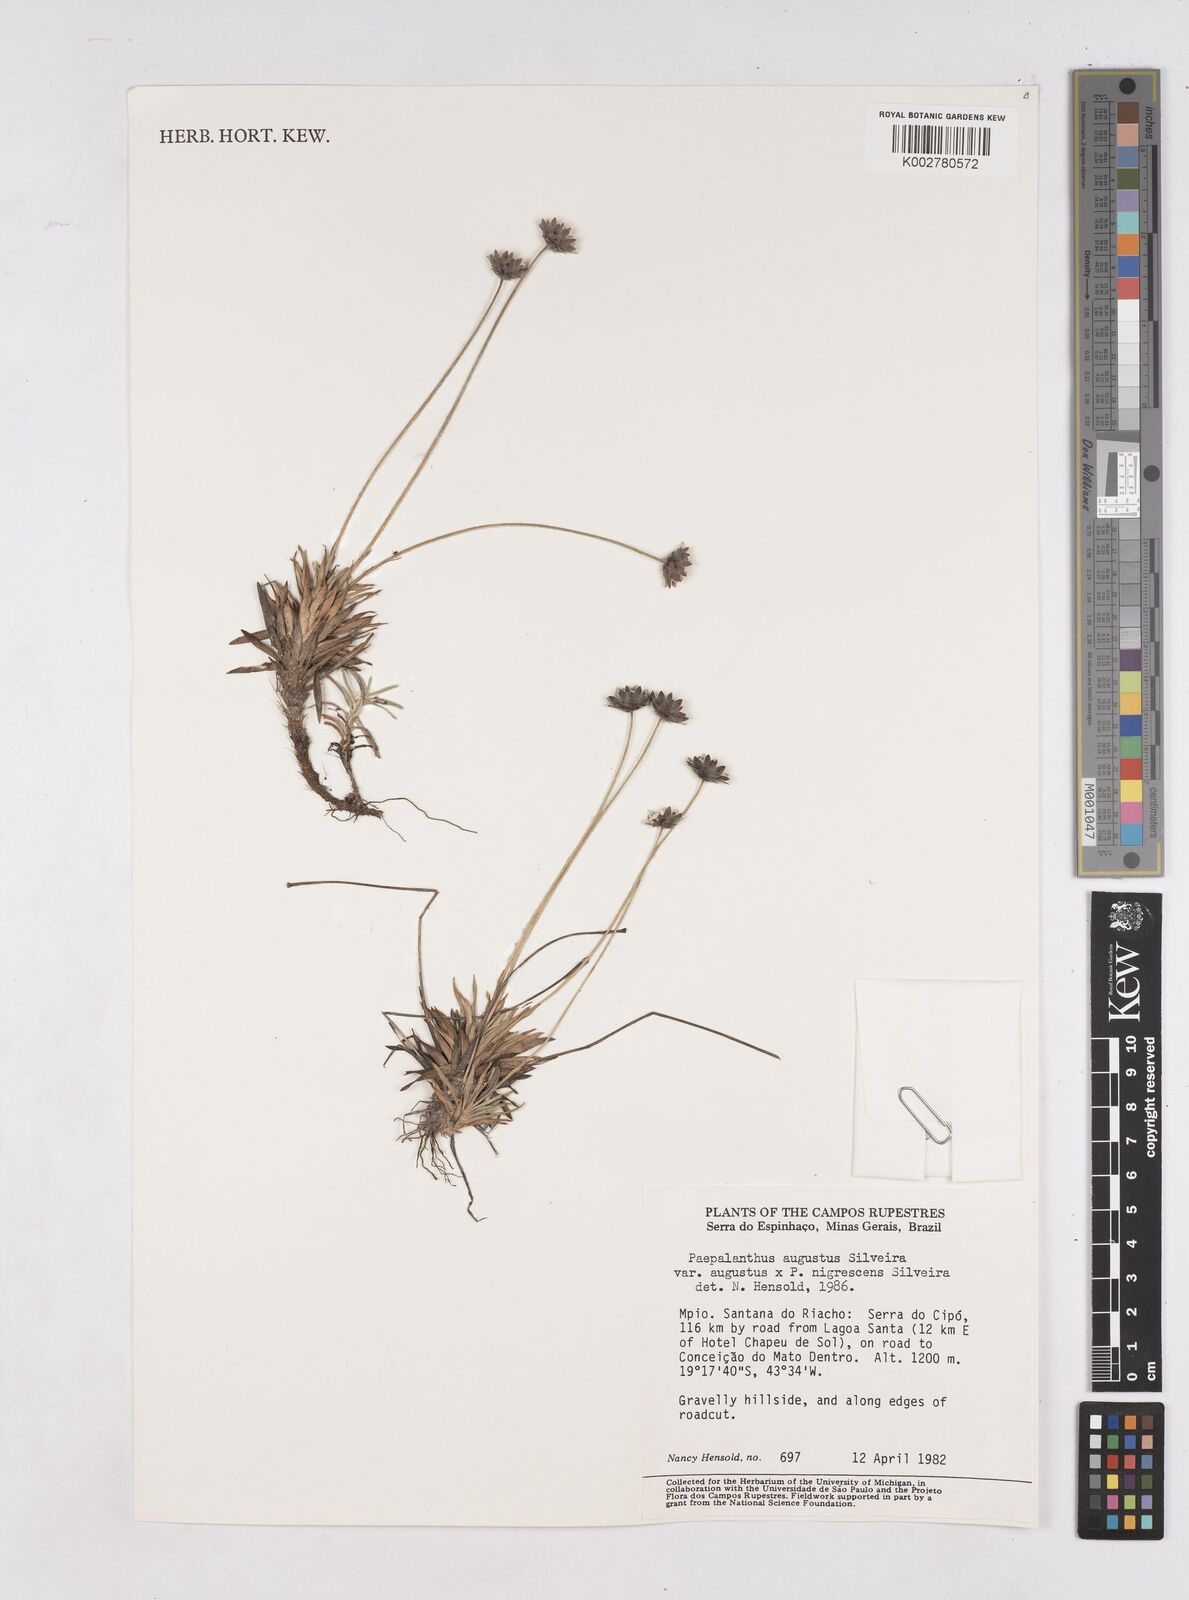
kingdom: Plantae
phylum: Tracheophyta
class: Liliopsida
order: Poales
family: Eriocaulaceae
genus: Paepalanthus
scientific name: Paepalanthus augustus
